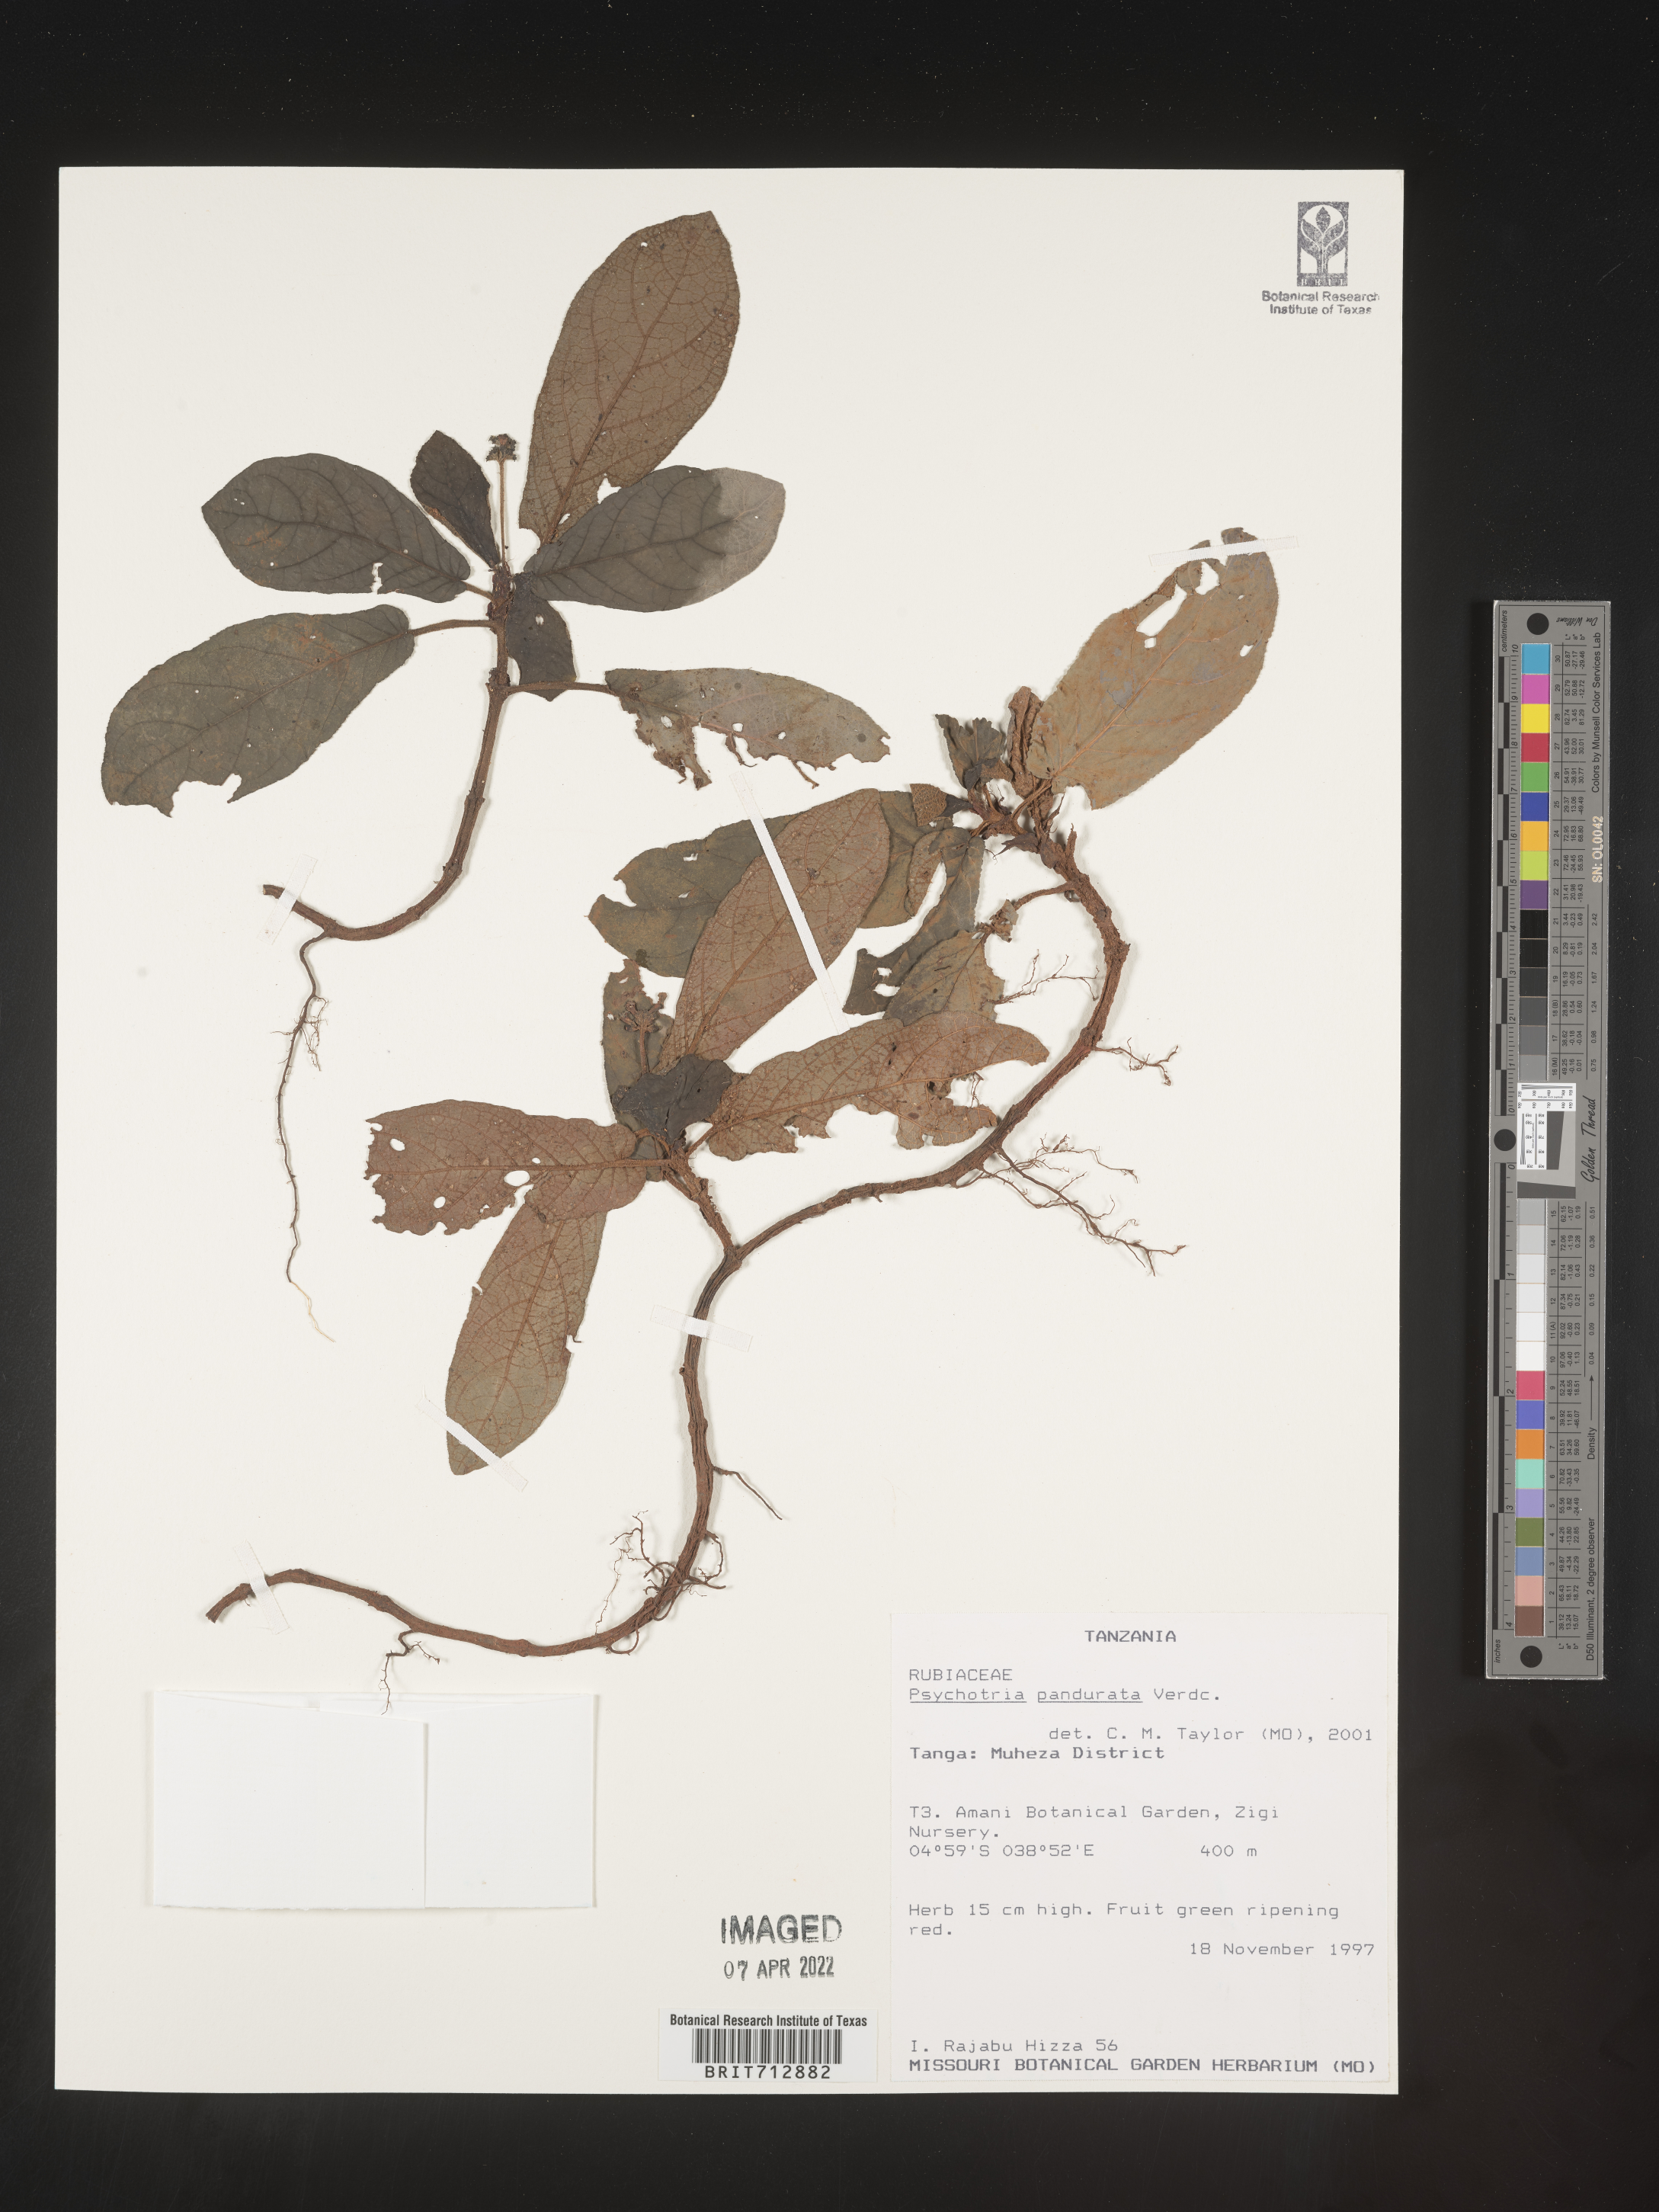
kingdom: Plantae
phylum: Tracheophyta
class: Magnoliopsida
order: Gentianales
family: Rubiaceae
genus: Psychotria
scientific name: Psychotria
